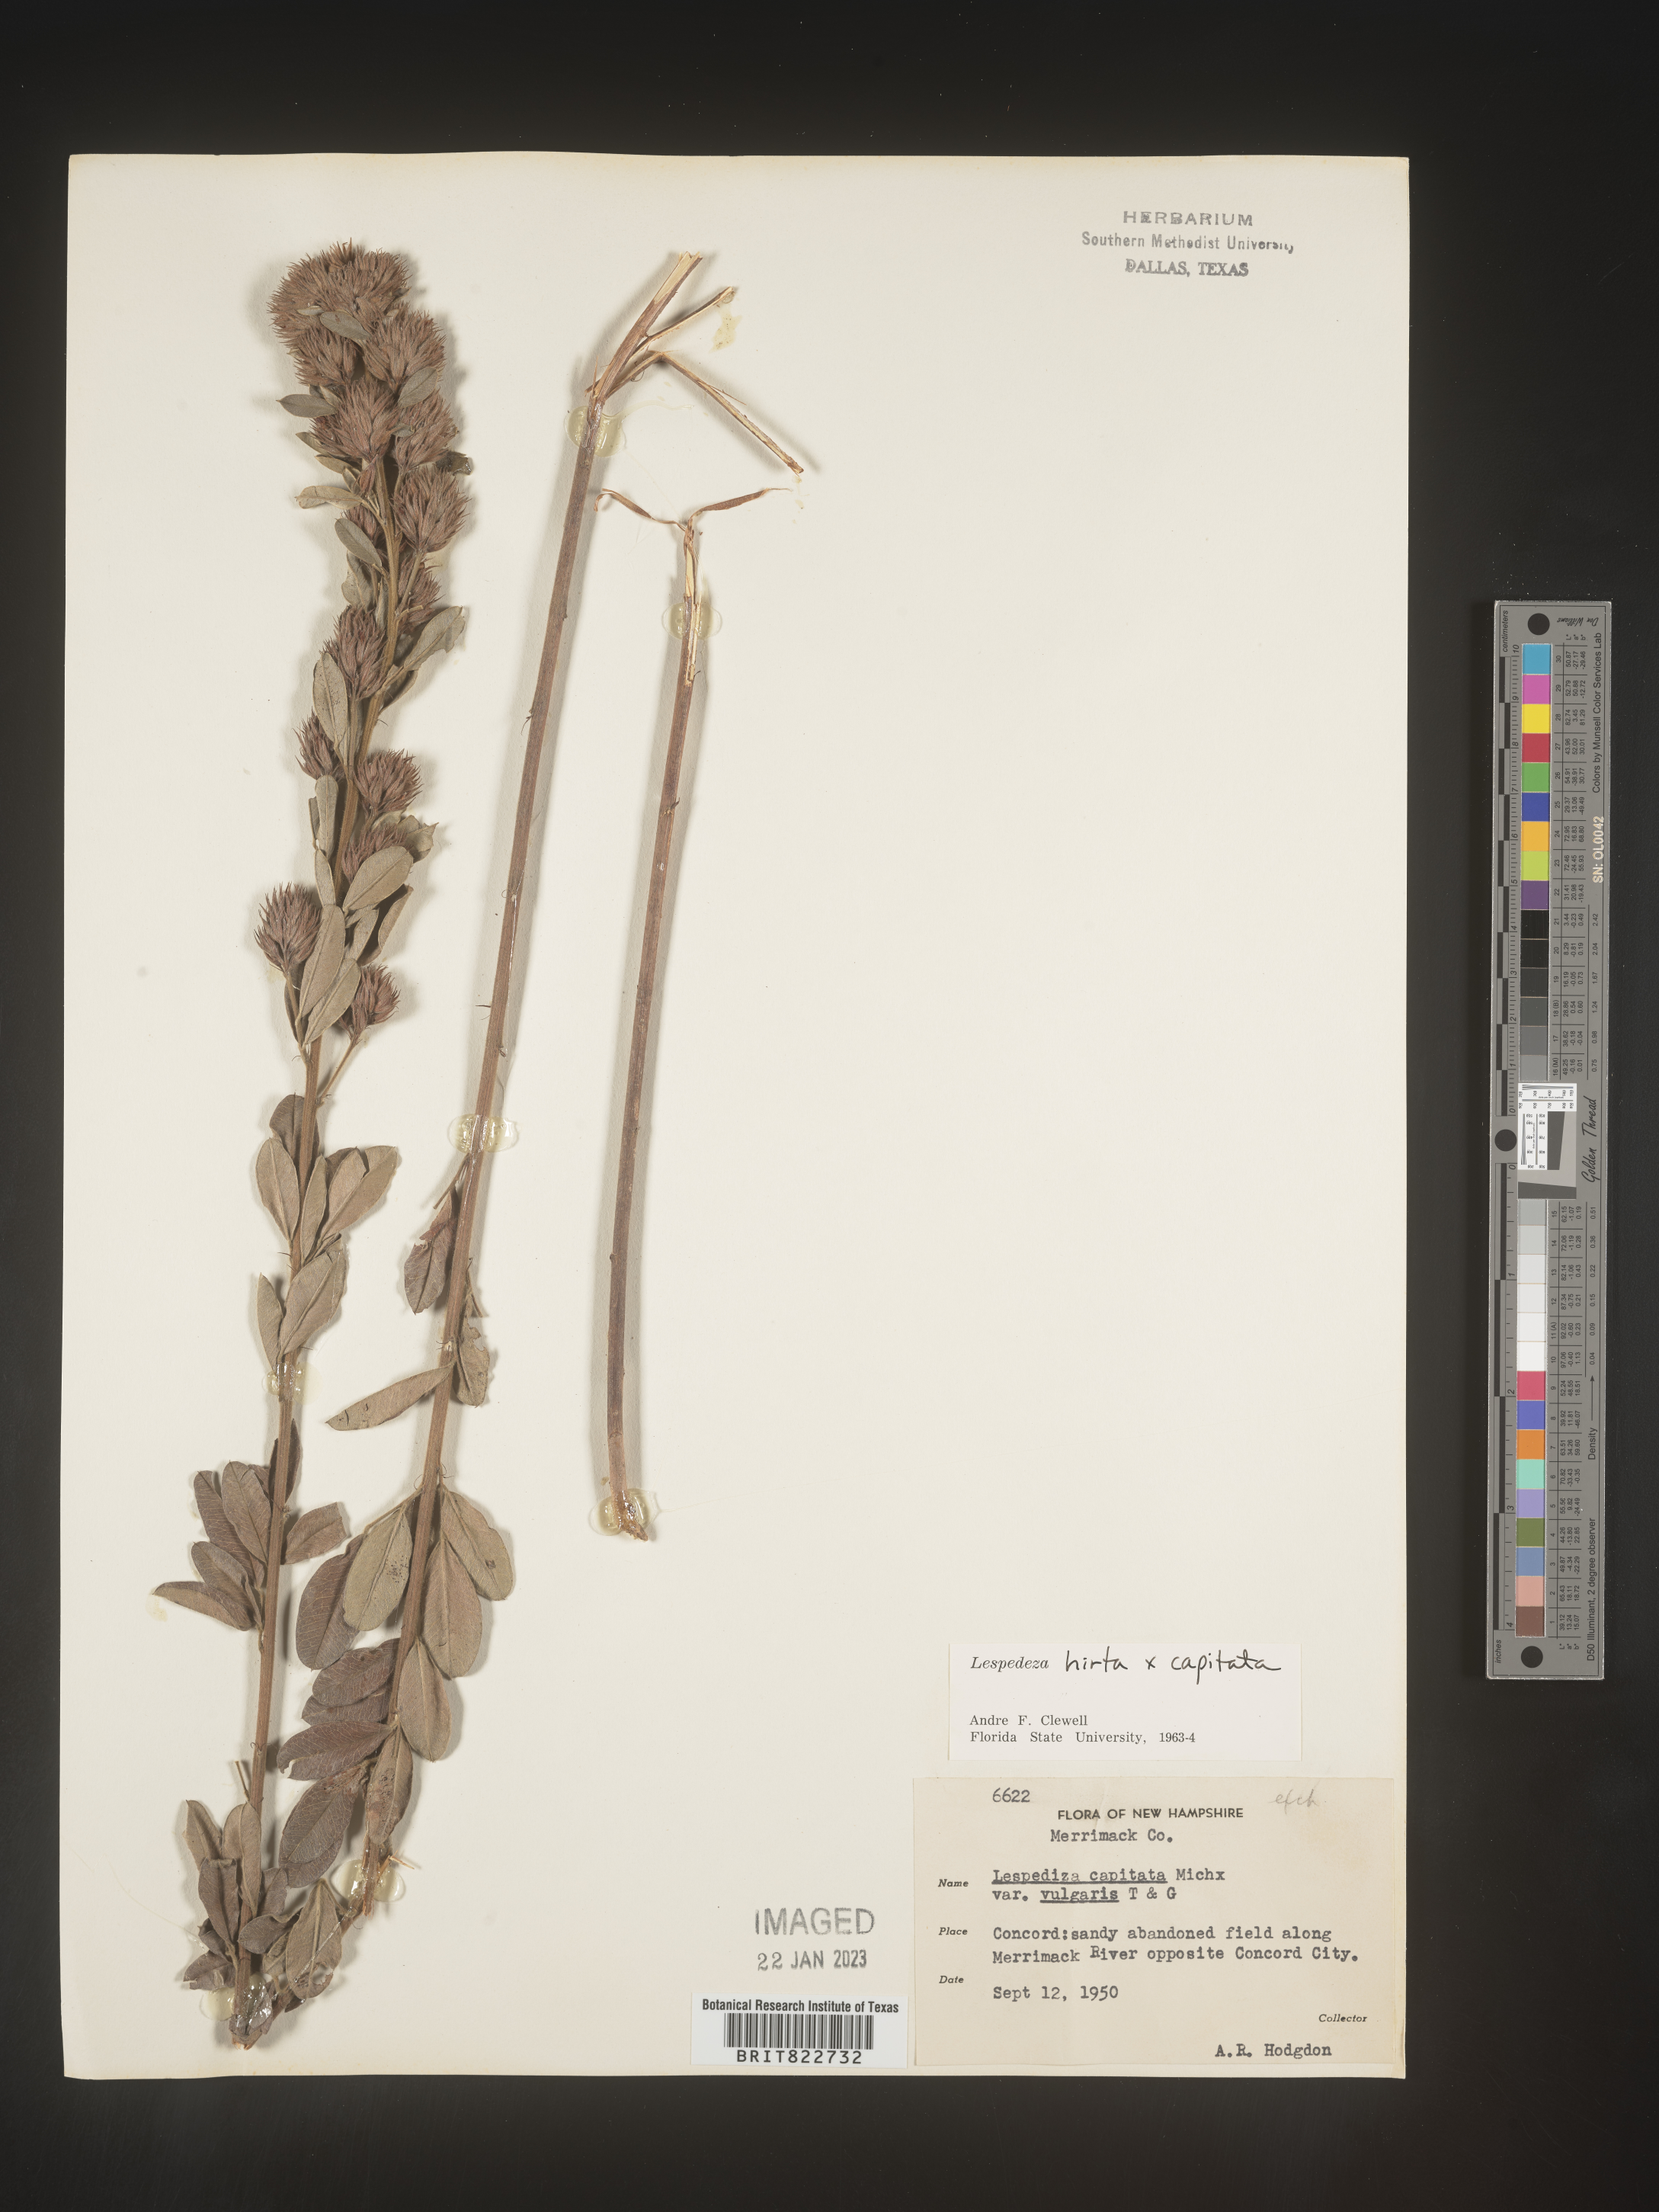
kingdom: Plantae
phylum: Tracheophyta
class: Magnoliopsida
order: Fabales
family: Fabaceae
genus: Lespedeza
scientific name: Lespedeza hirta
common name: Hairy lespedeza
